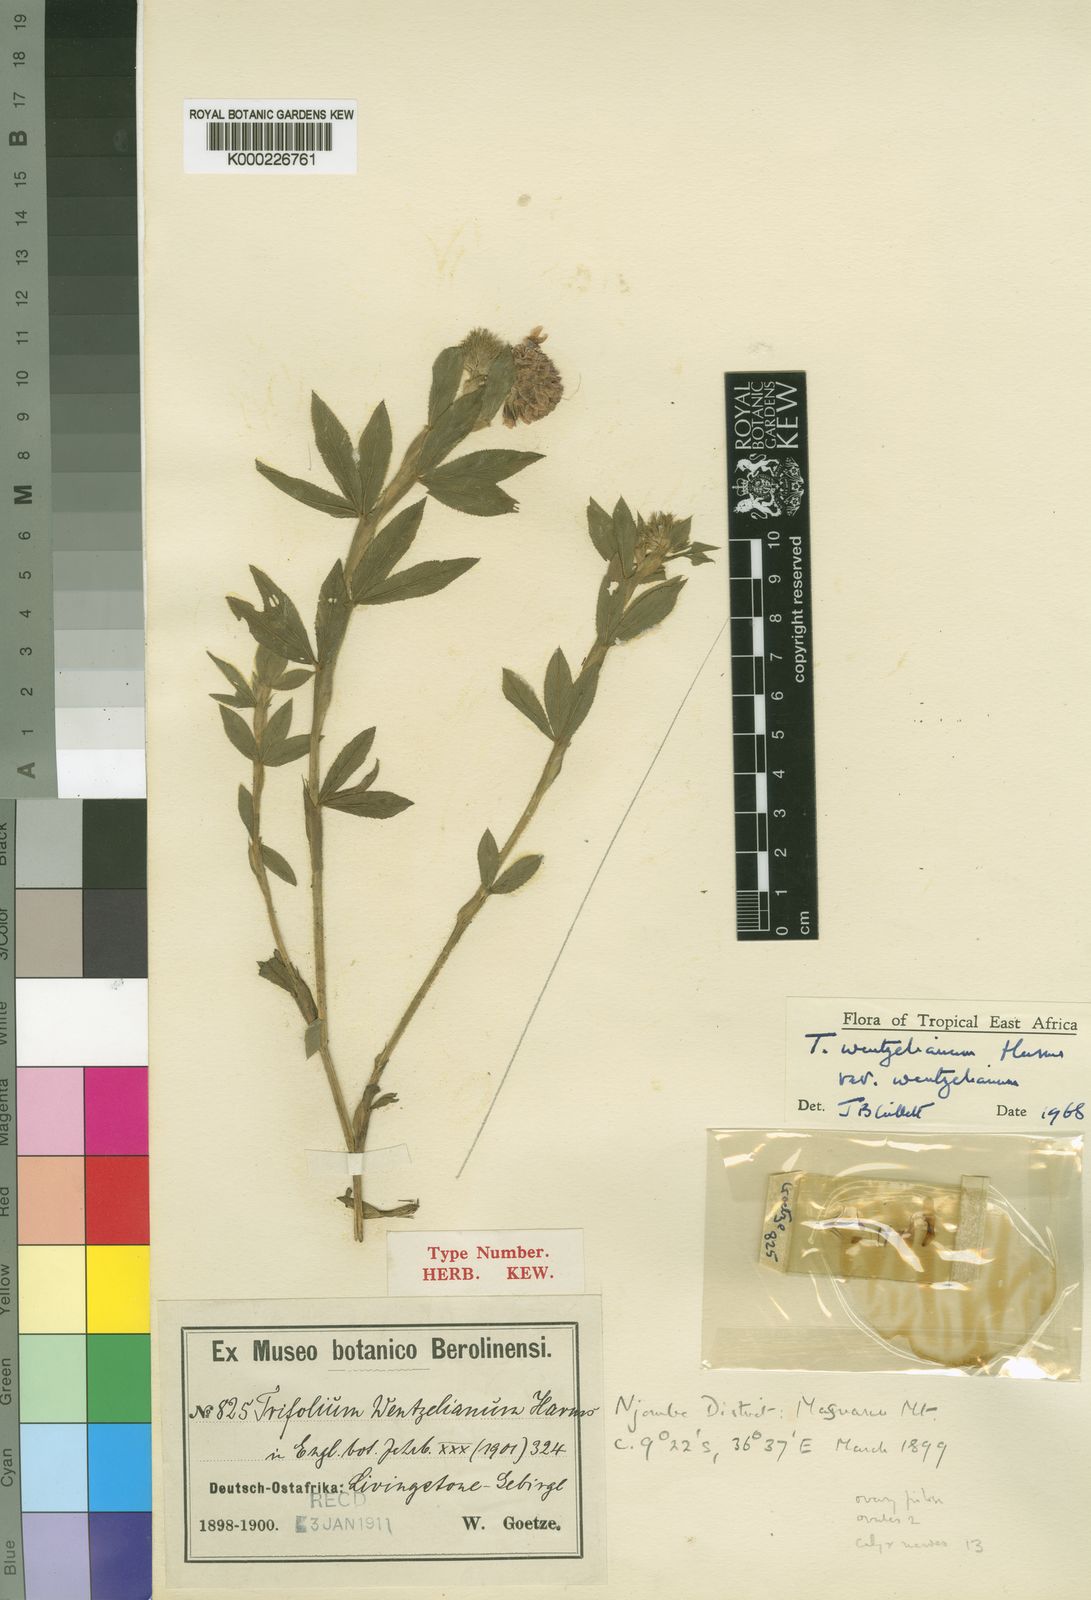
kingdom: Plantae
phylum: Tracheophyta
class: Magnoliopsida
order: Fabales
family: Fabaceae
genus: Trifolium
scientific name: Trifolium wentzelianum
